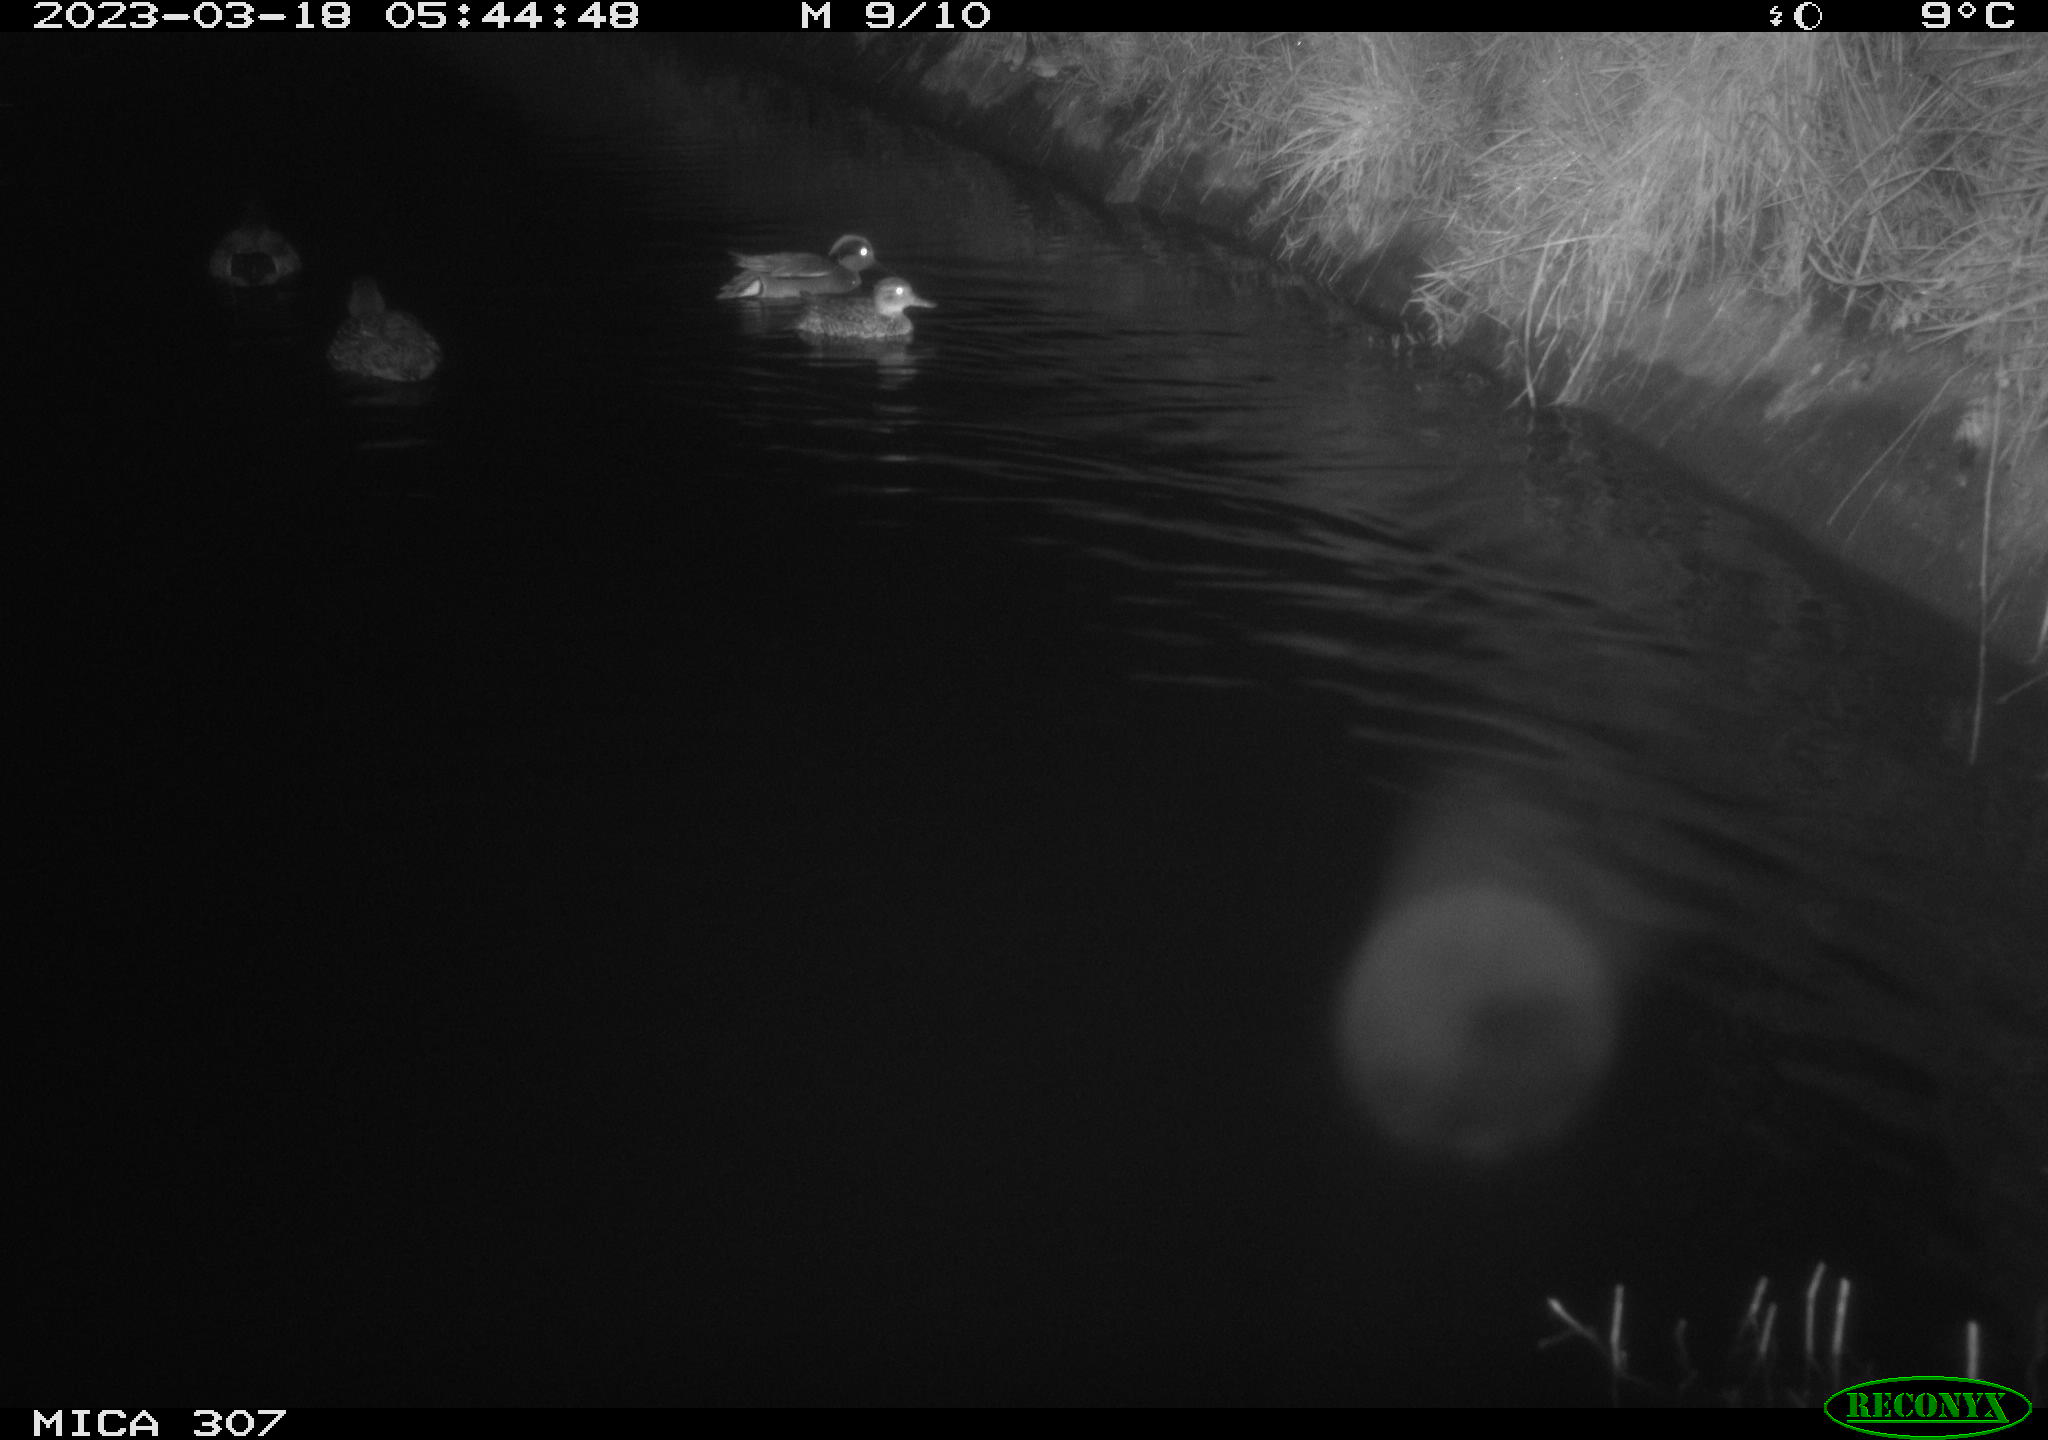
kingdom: Animalia
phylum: Chordata
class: Aves
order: Anseriformes
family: Anatidae
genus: Anas
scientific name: Anas
